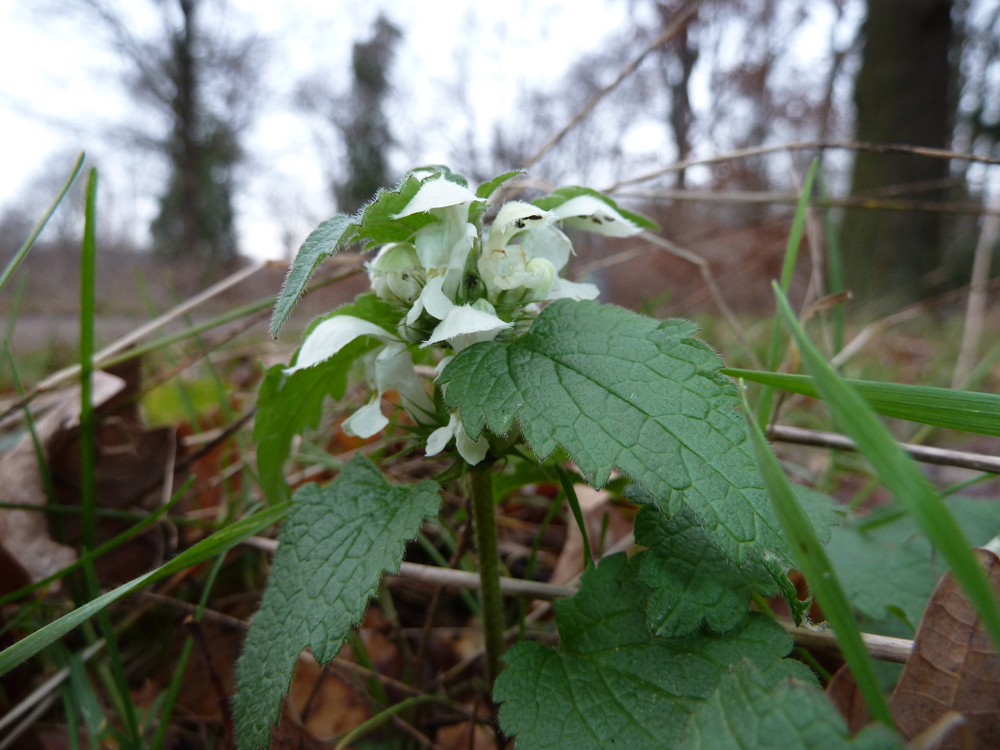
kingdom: Plantae
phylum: Tracheophyta
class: Magnoliopsida
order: Lamiales
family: Lamiaceae
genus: Lamium
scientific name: Lamium album
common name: White dead-nettle
